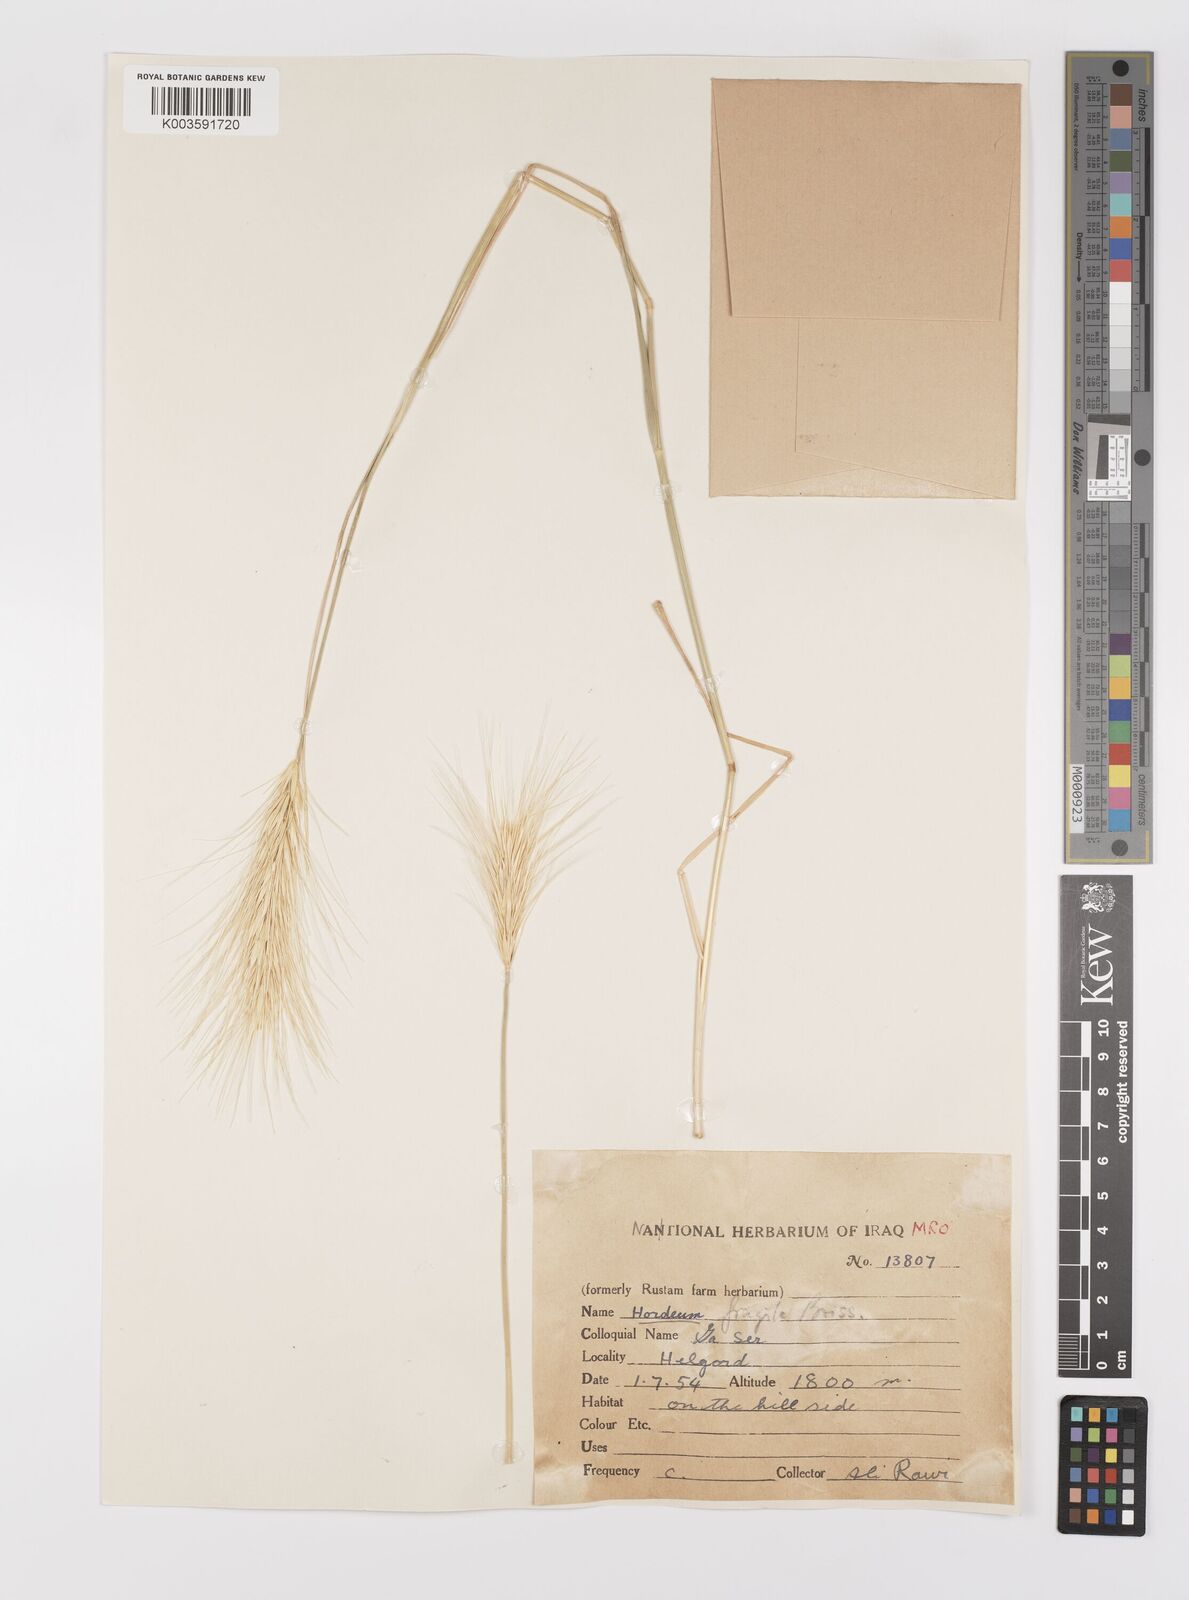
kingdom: Plantae
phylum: Tracheophyta
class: Liliopsida
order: Poales
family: Poaceae
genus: Psathyrostachys
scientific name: Psathyrostachys fragilis
